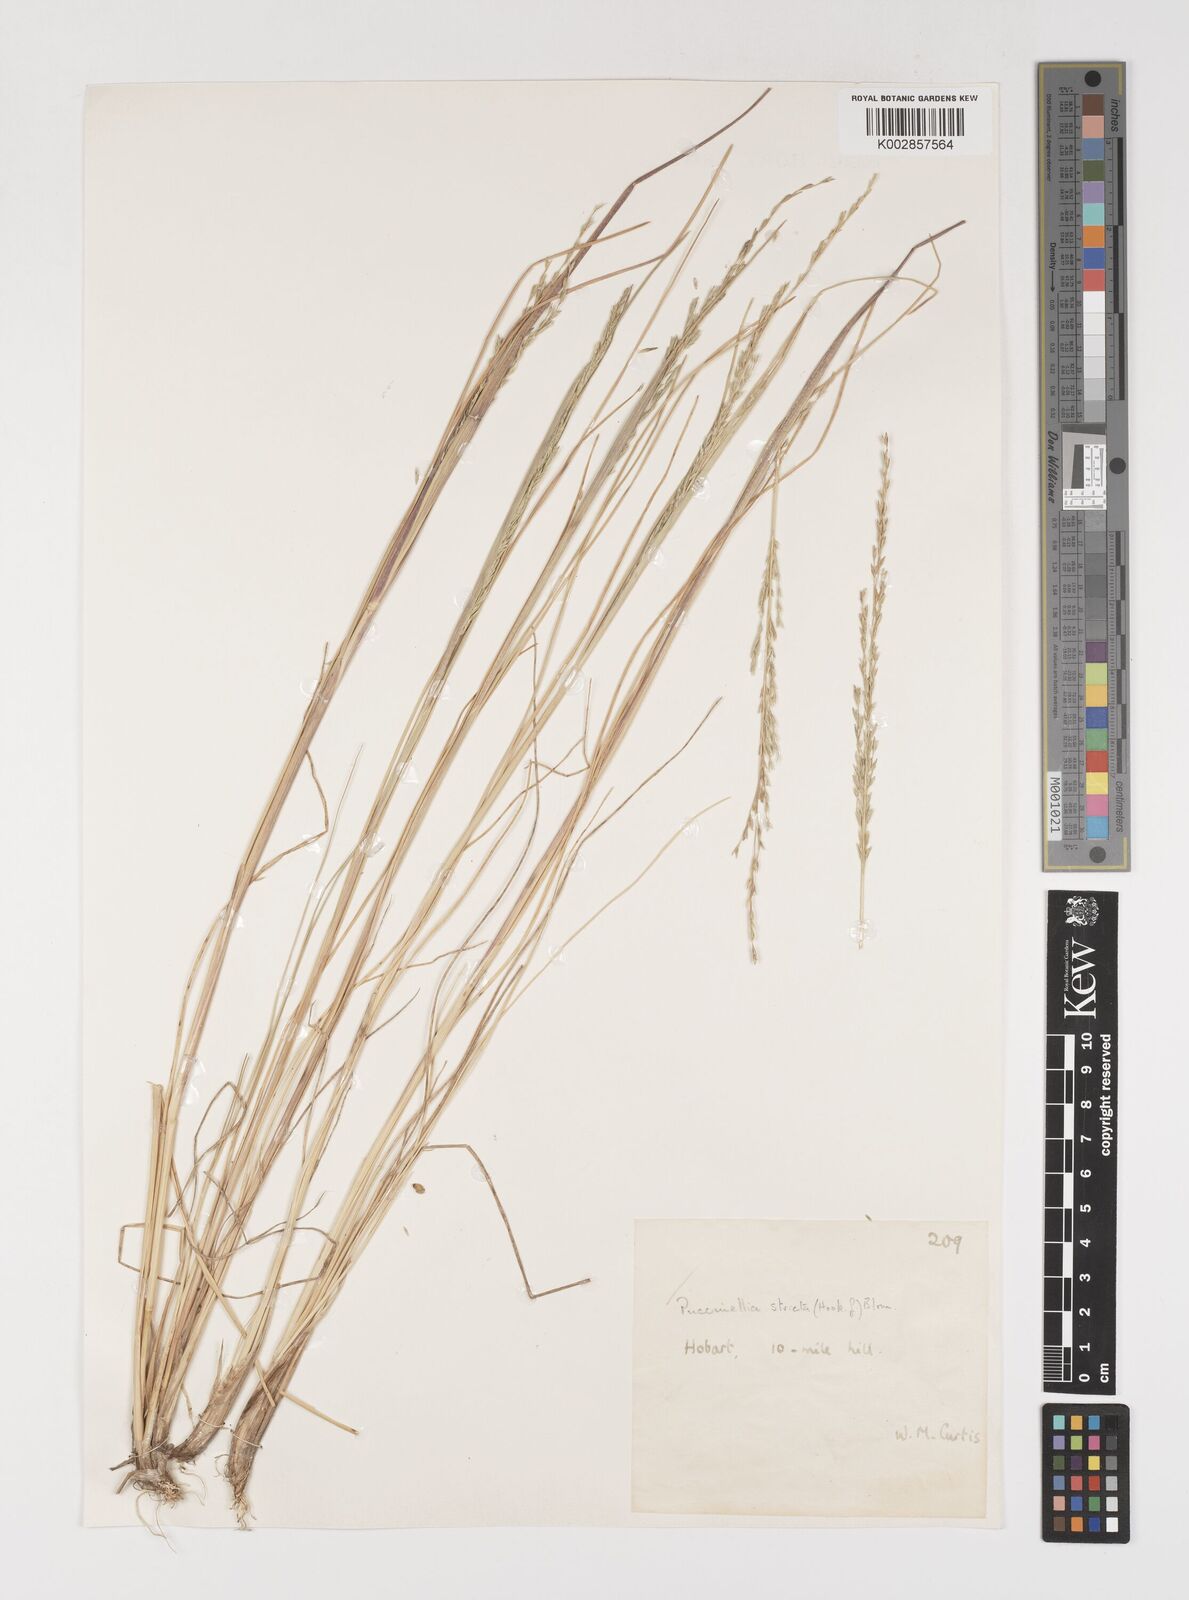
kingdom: Plantae
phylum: Tracheophyta
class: Liliopsida
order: Poales
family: Poaceae
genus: Puccinellia
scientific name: Puccinellia stricta
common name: Australian saltmarsh grass
